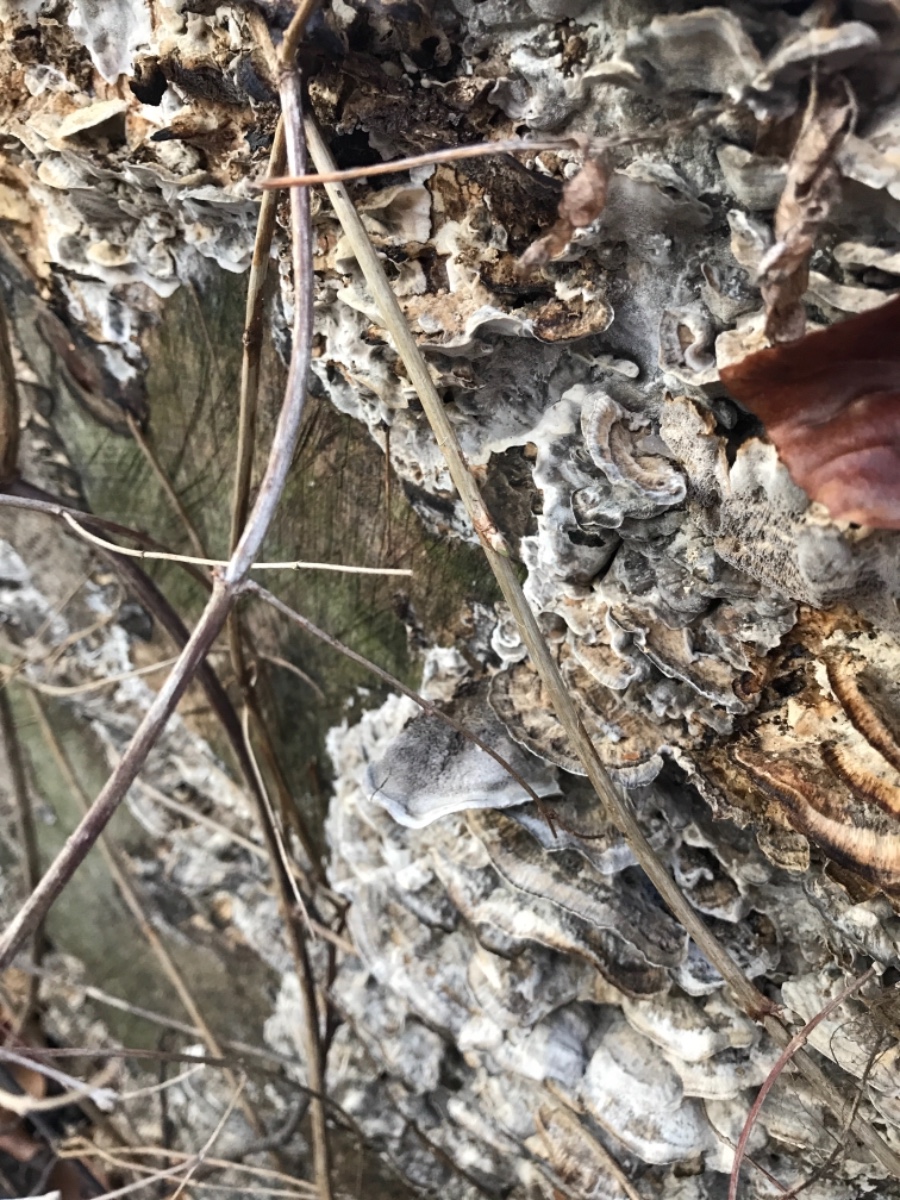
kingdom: Fungi
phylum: Basidiomycota
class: Agaricomycetes
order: Polyporales
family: Phanerochaetaceae
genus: Bjerkandera
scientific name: Bjerkandera adusta
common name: sveden sodporesvamp
